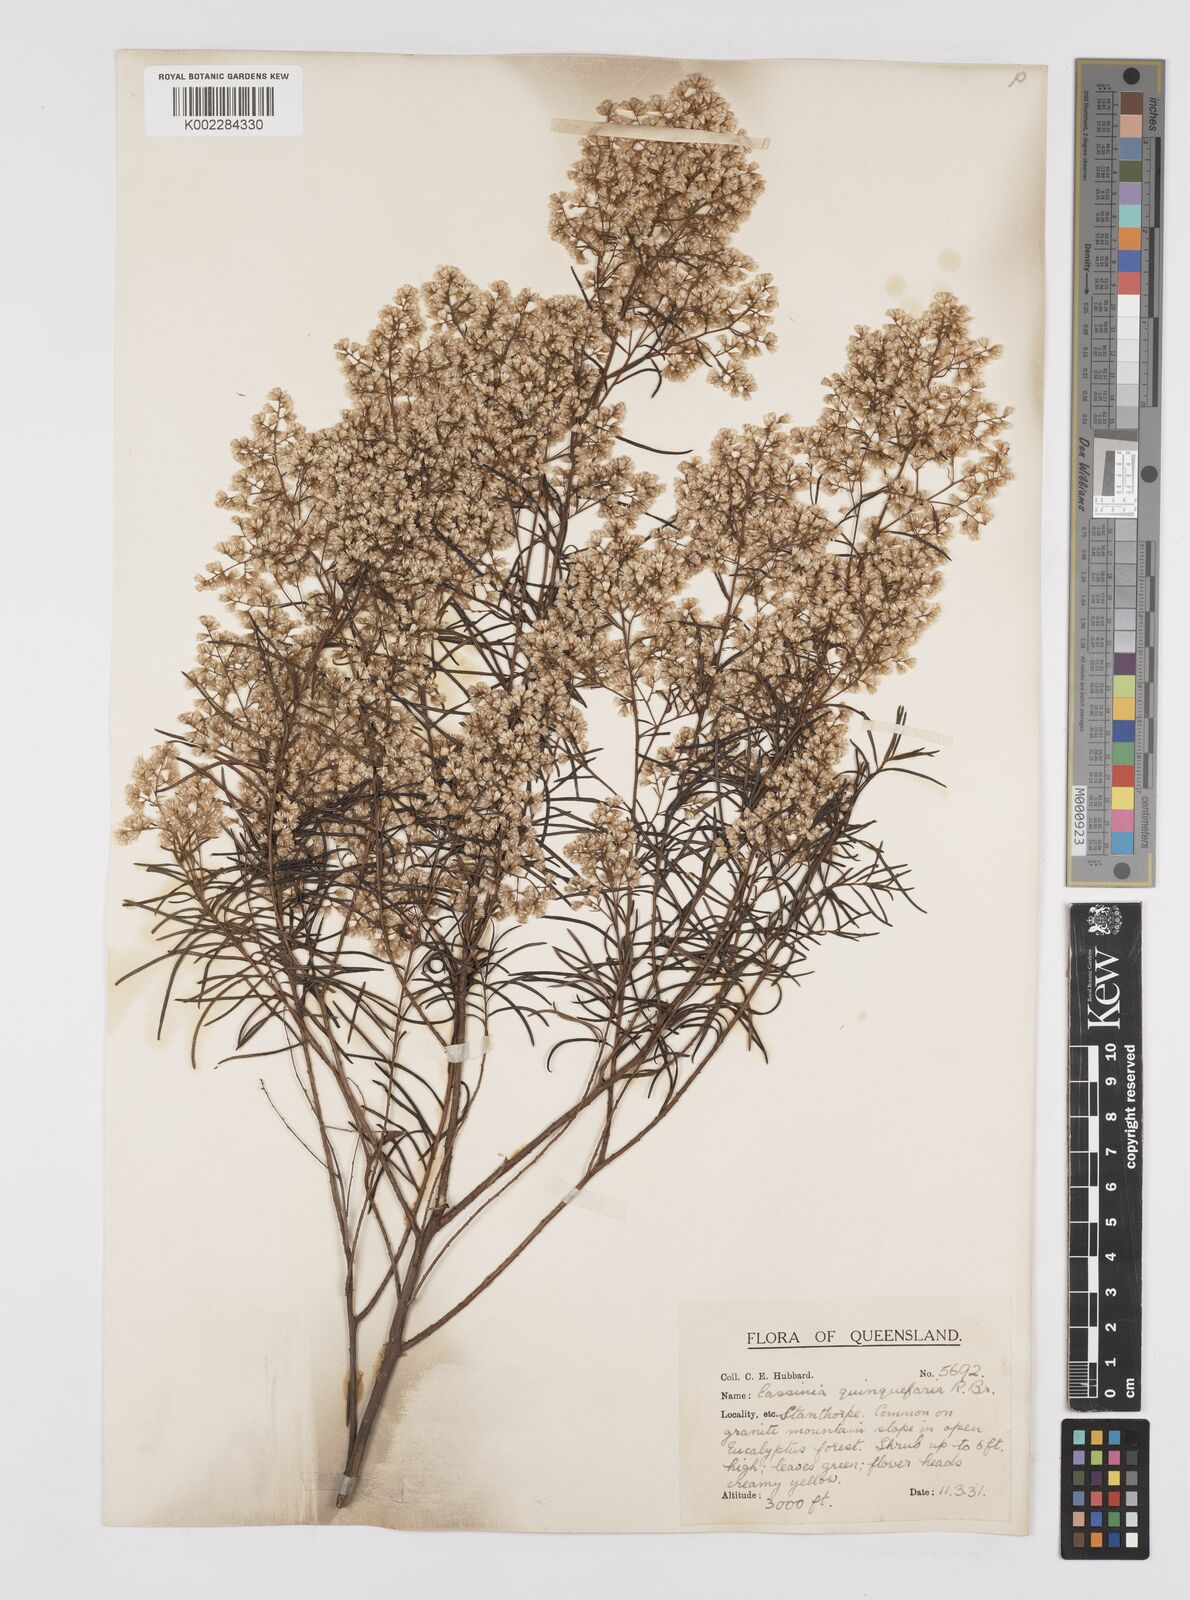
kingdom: Plantae
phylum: Tracheophyta
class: Magnoliopsida
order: Asterales
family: Asteraceae
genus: Cassinia
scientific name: Cassinia quinquefaria
